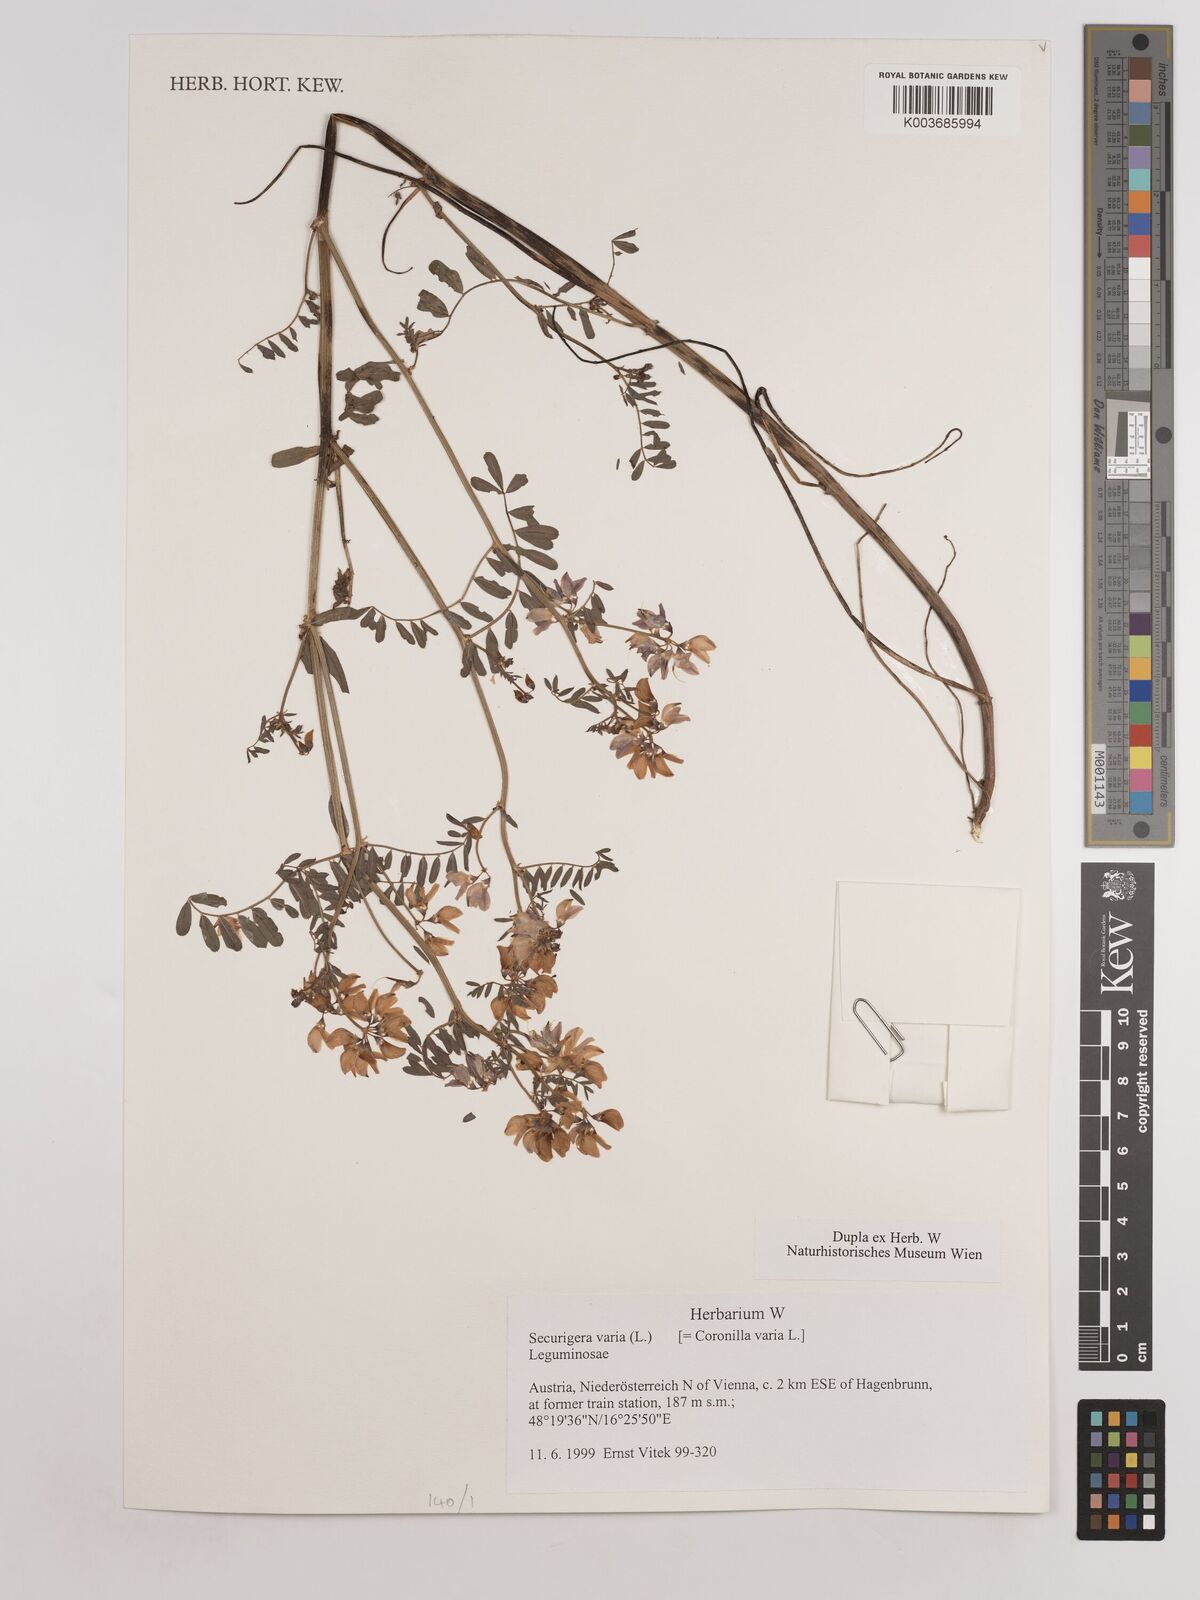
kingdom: Plantae
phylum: Tracheophyta
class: Magnoliopsida
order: Fabales
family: Fabaceae
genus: Coronilla
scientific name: Coronilla varia
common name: Crownvetch
